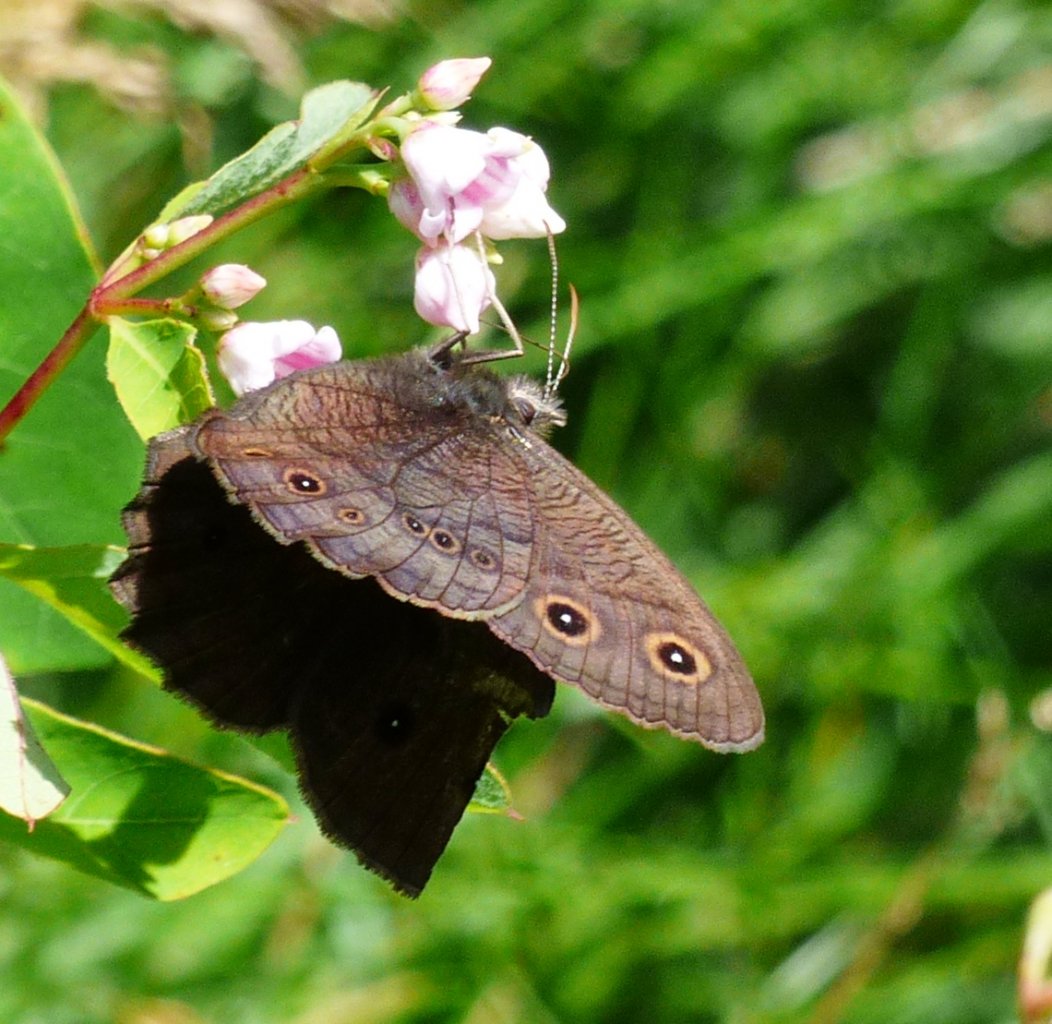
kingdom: Animalia
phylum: Arthropoda
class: Insecta
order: Lepidoptera
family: Nymphalidae
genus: Cercyonis
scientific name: Cercyonis pegala
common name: Common Wood-Nymph
